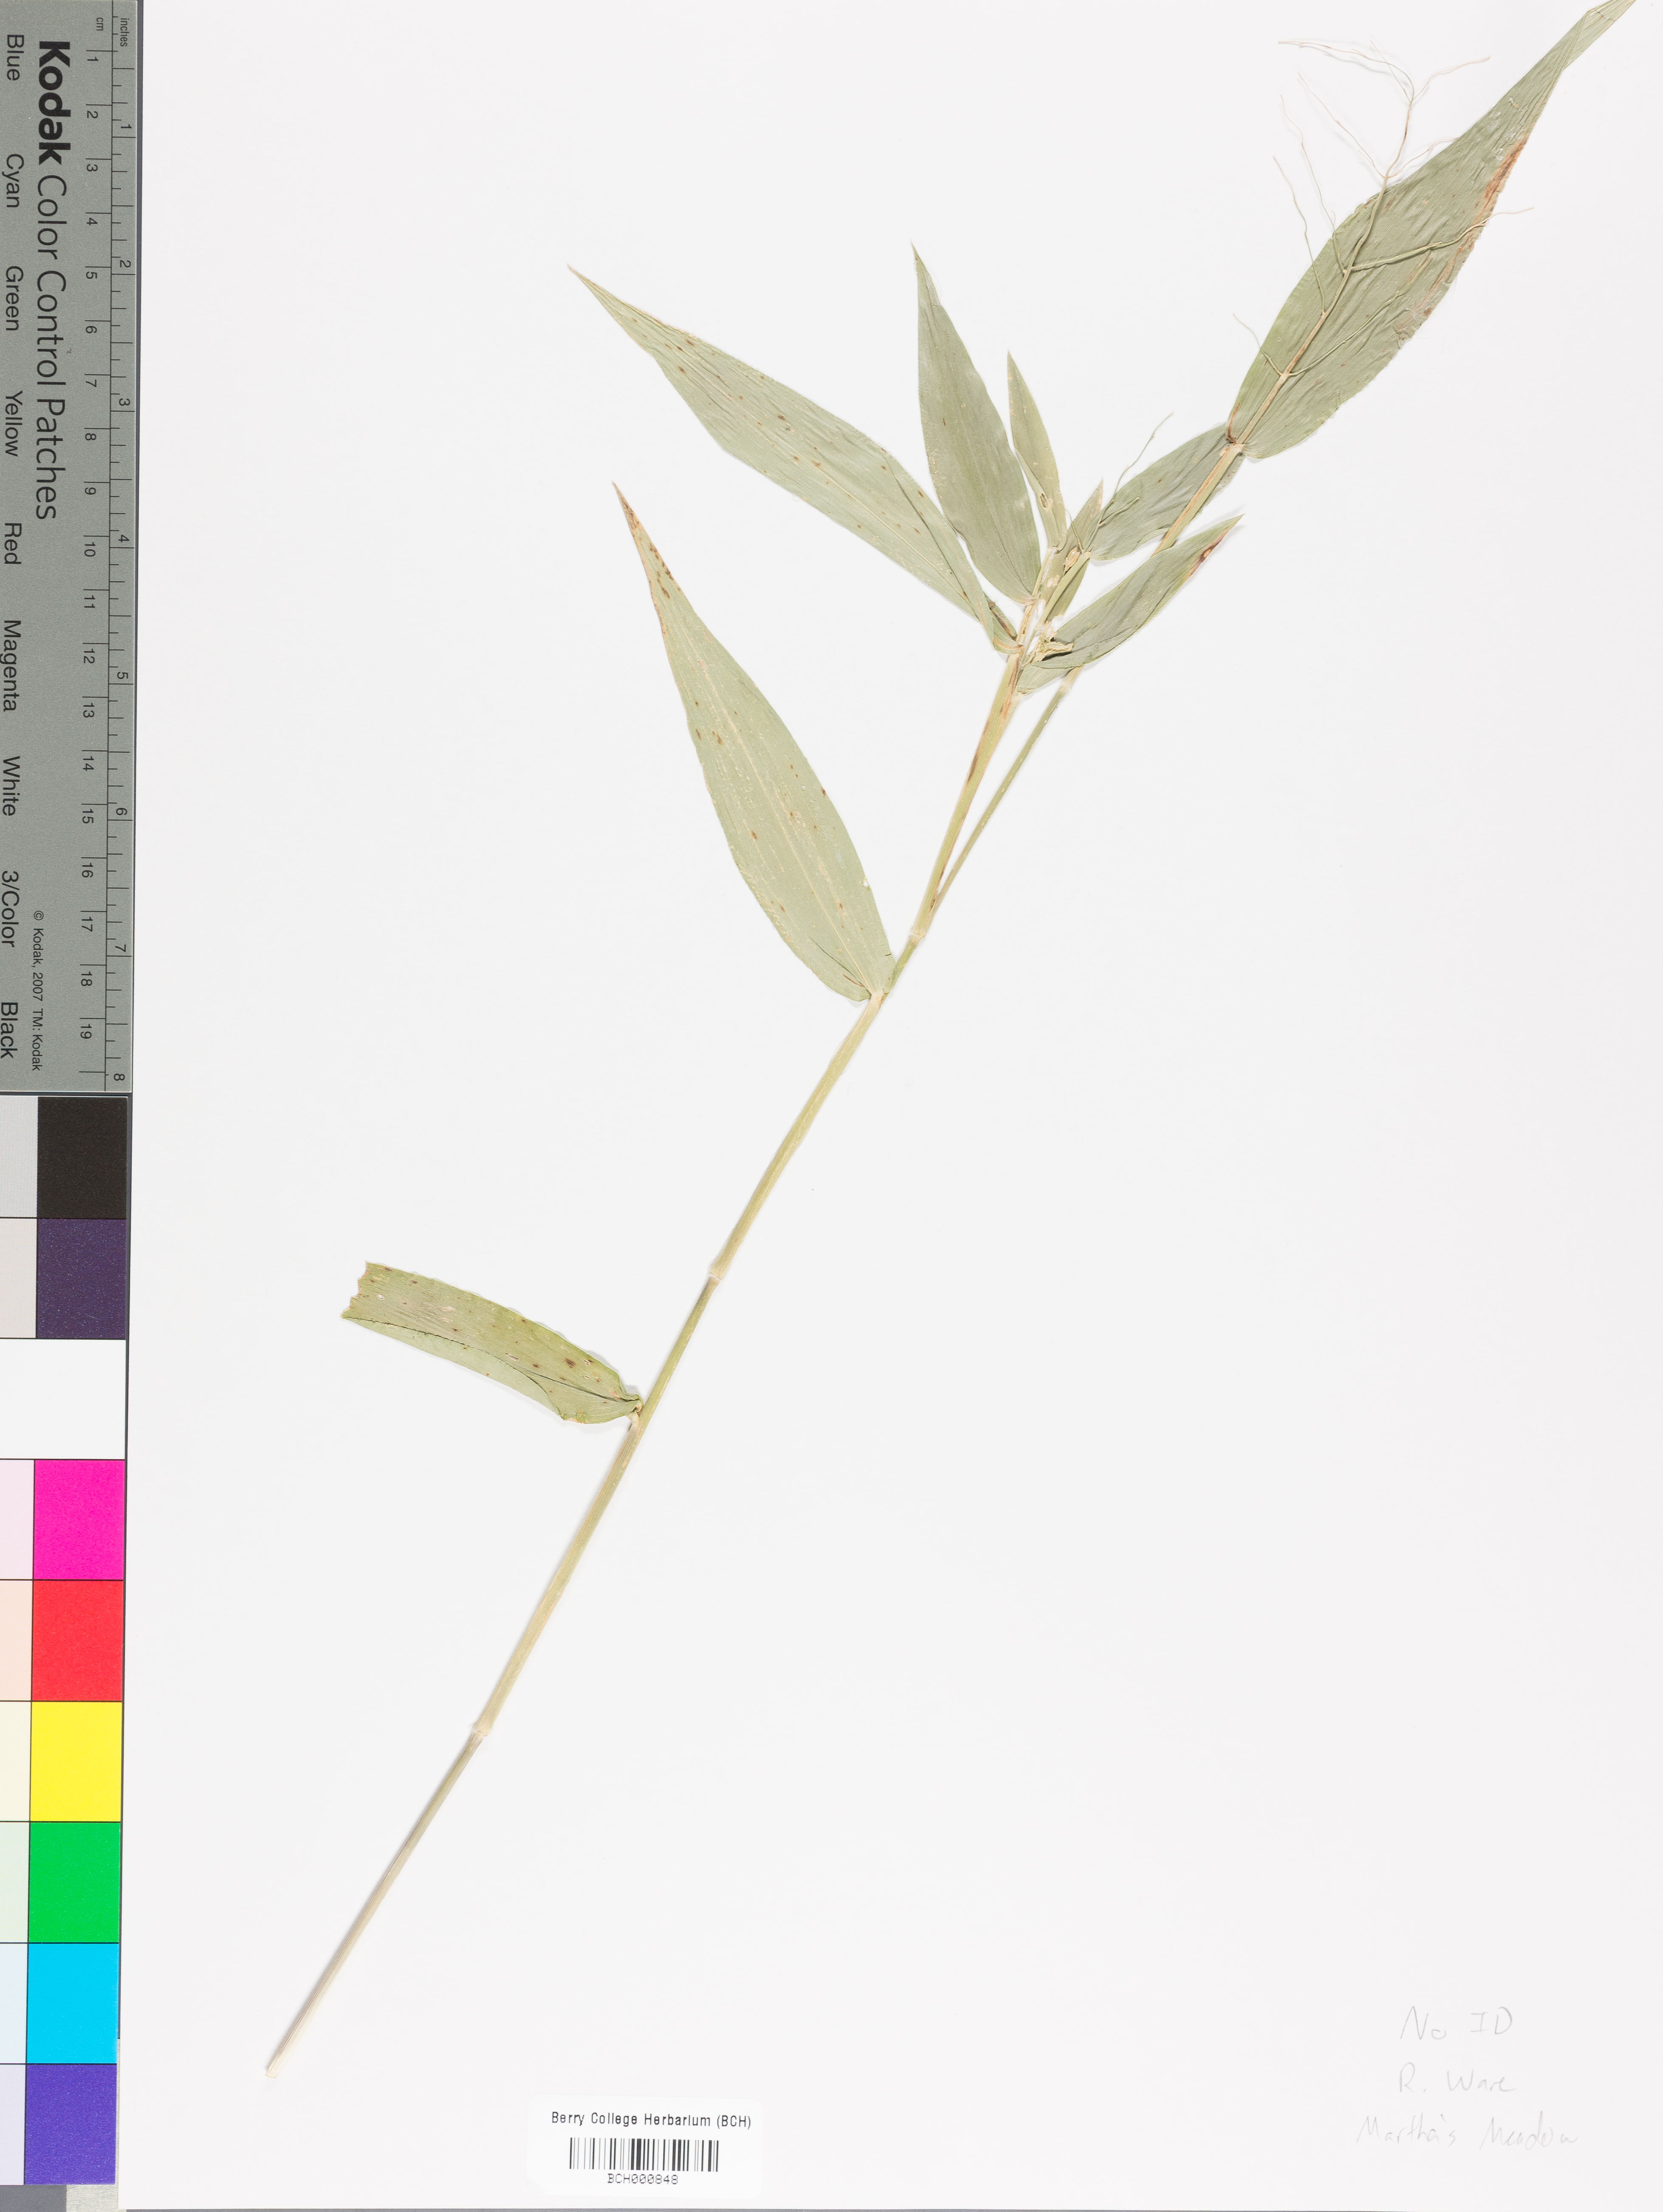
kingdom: Plantae
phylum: Tracheophyta
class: Magnoliopsida
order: Lamiales
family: Acanthaceae
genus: Adhatoda
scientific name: Adhatoda
